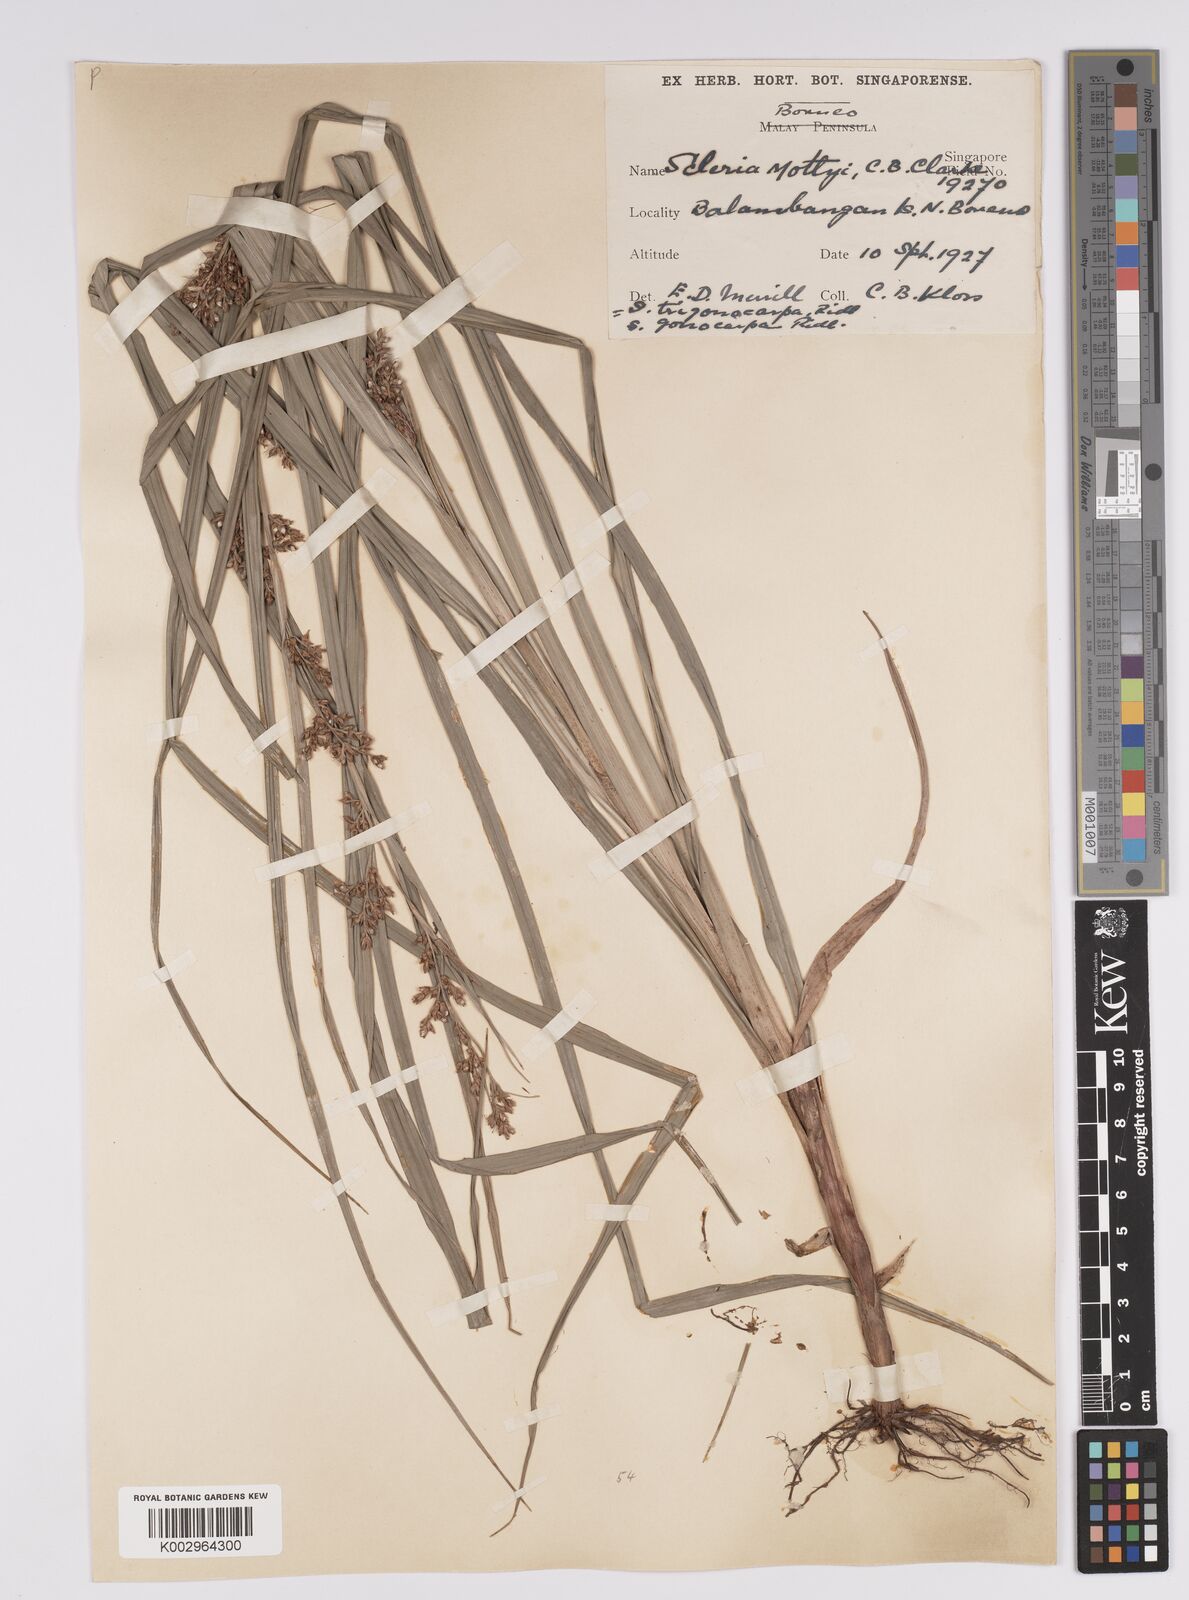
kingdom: Plantae
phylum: Tracheophyta
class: Liliopsida
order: Poales
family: Cyperaceae
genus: Scleria
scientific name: Scleria motleyi
